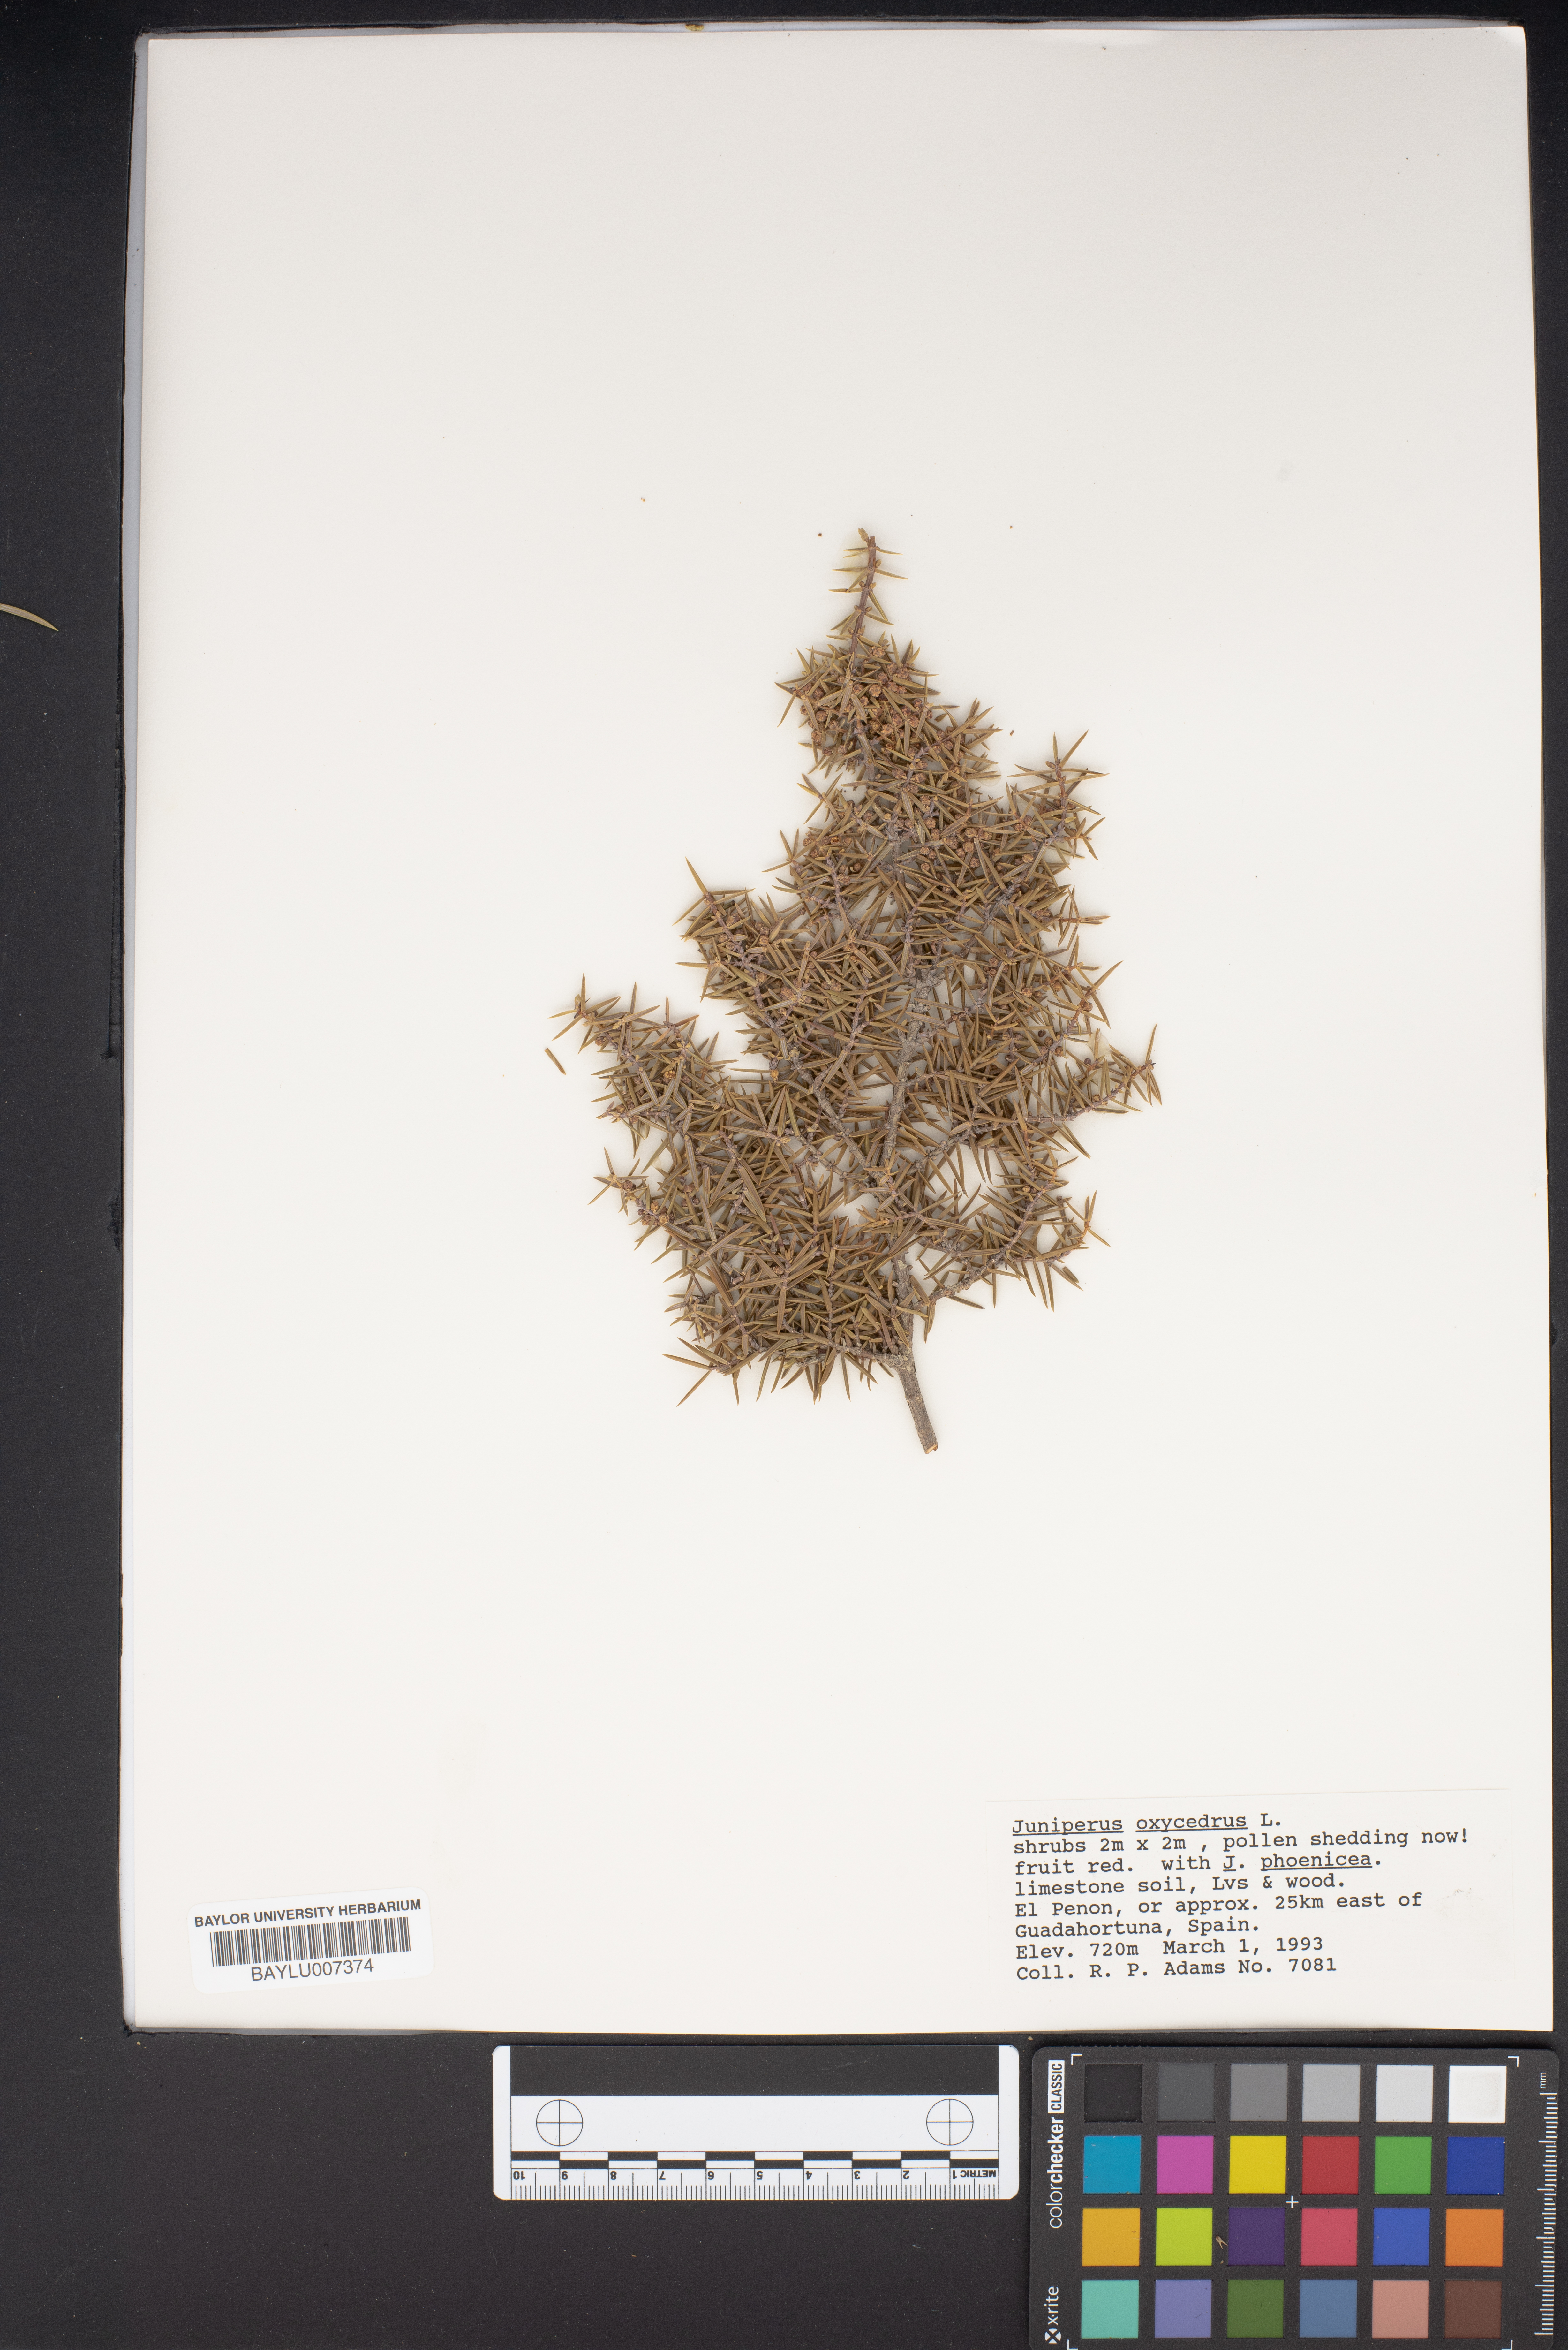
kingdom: Plantae
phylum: Tracheophyta
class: Pinopsida
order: Pinales
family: Cupressaceae
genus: Juniperus
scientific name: Juniperus oxycedrus
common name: Prickly juniper
